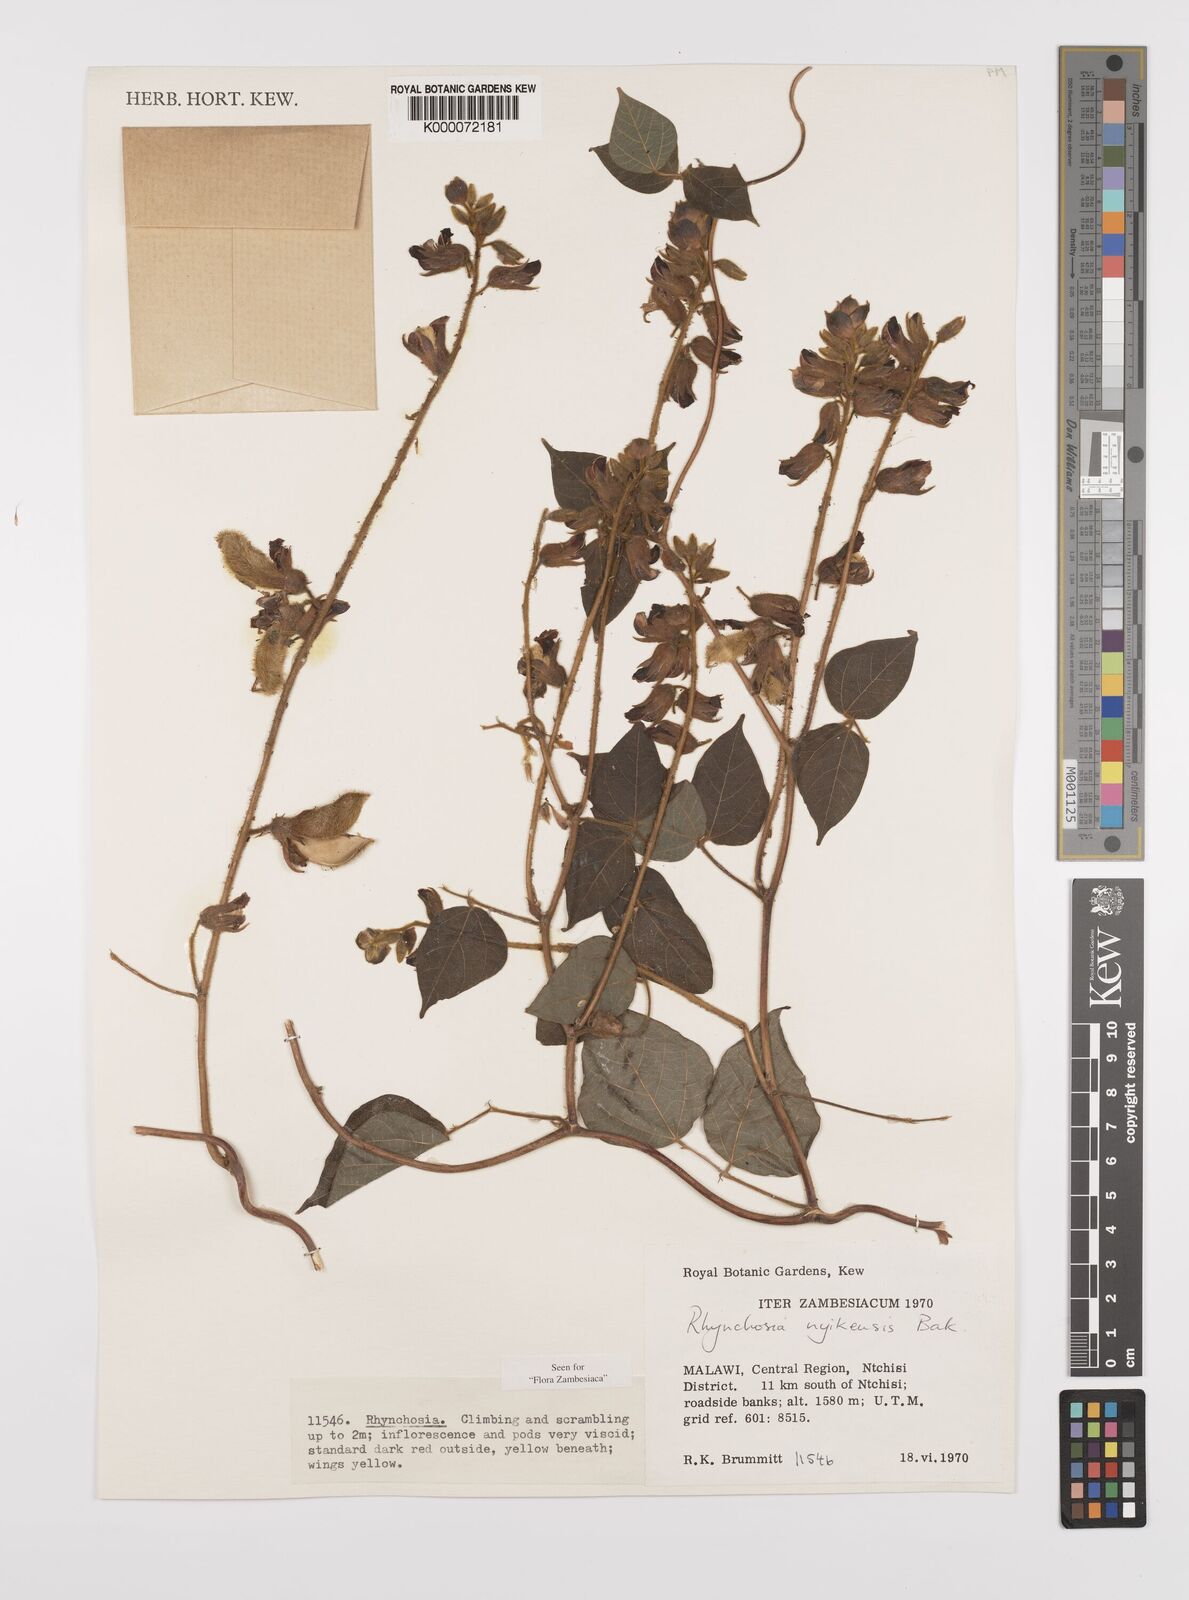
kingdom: Plantae
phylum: Tracheophyta
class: Magnoliopsida
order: Fabales
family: Fabaceae
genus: Rhynchosia
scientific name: Rhynchosia nyikensis
